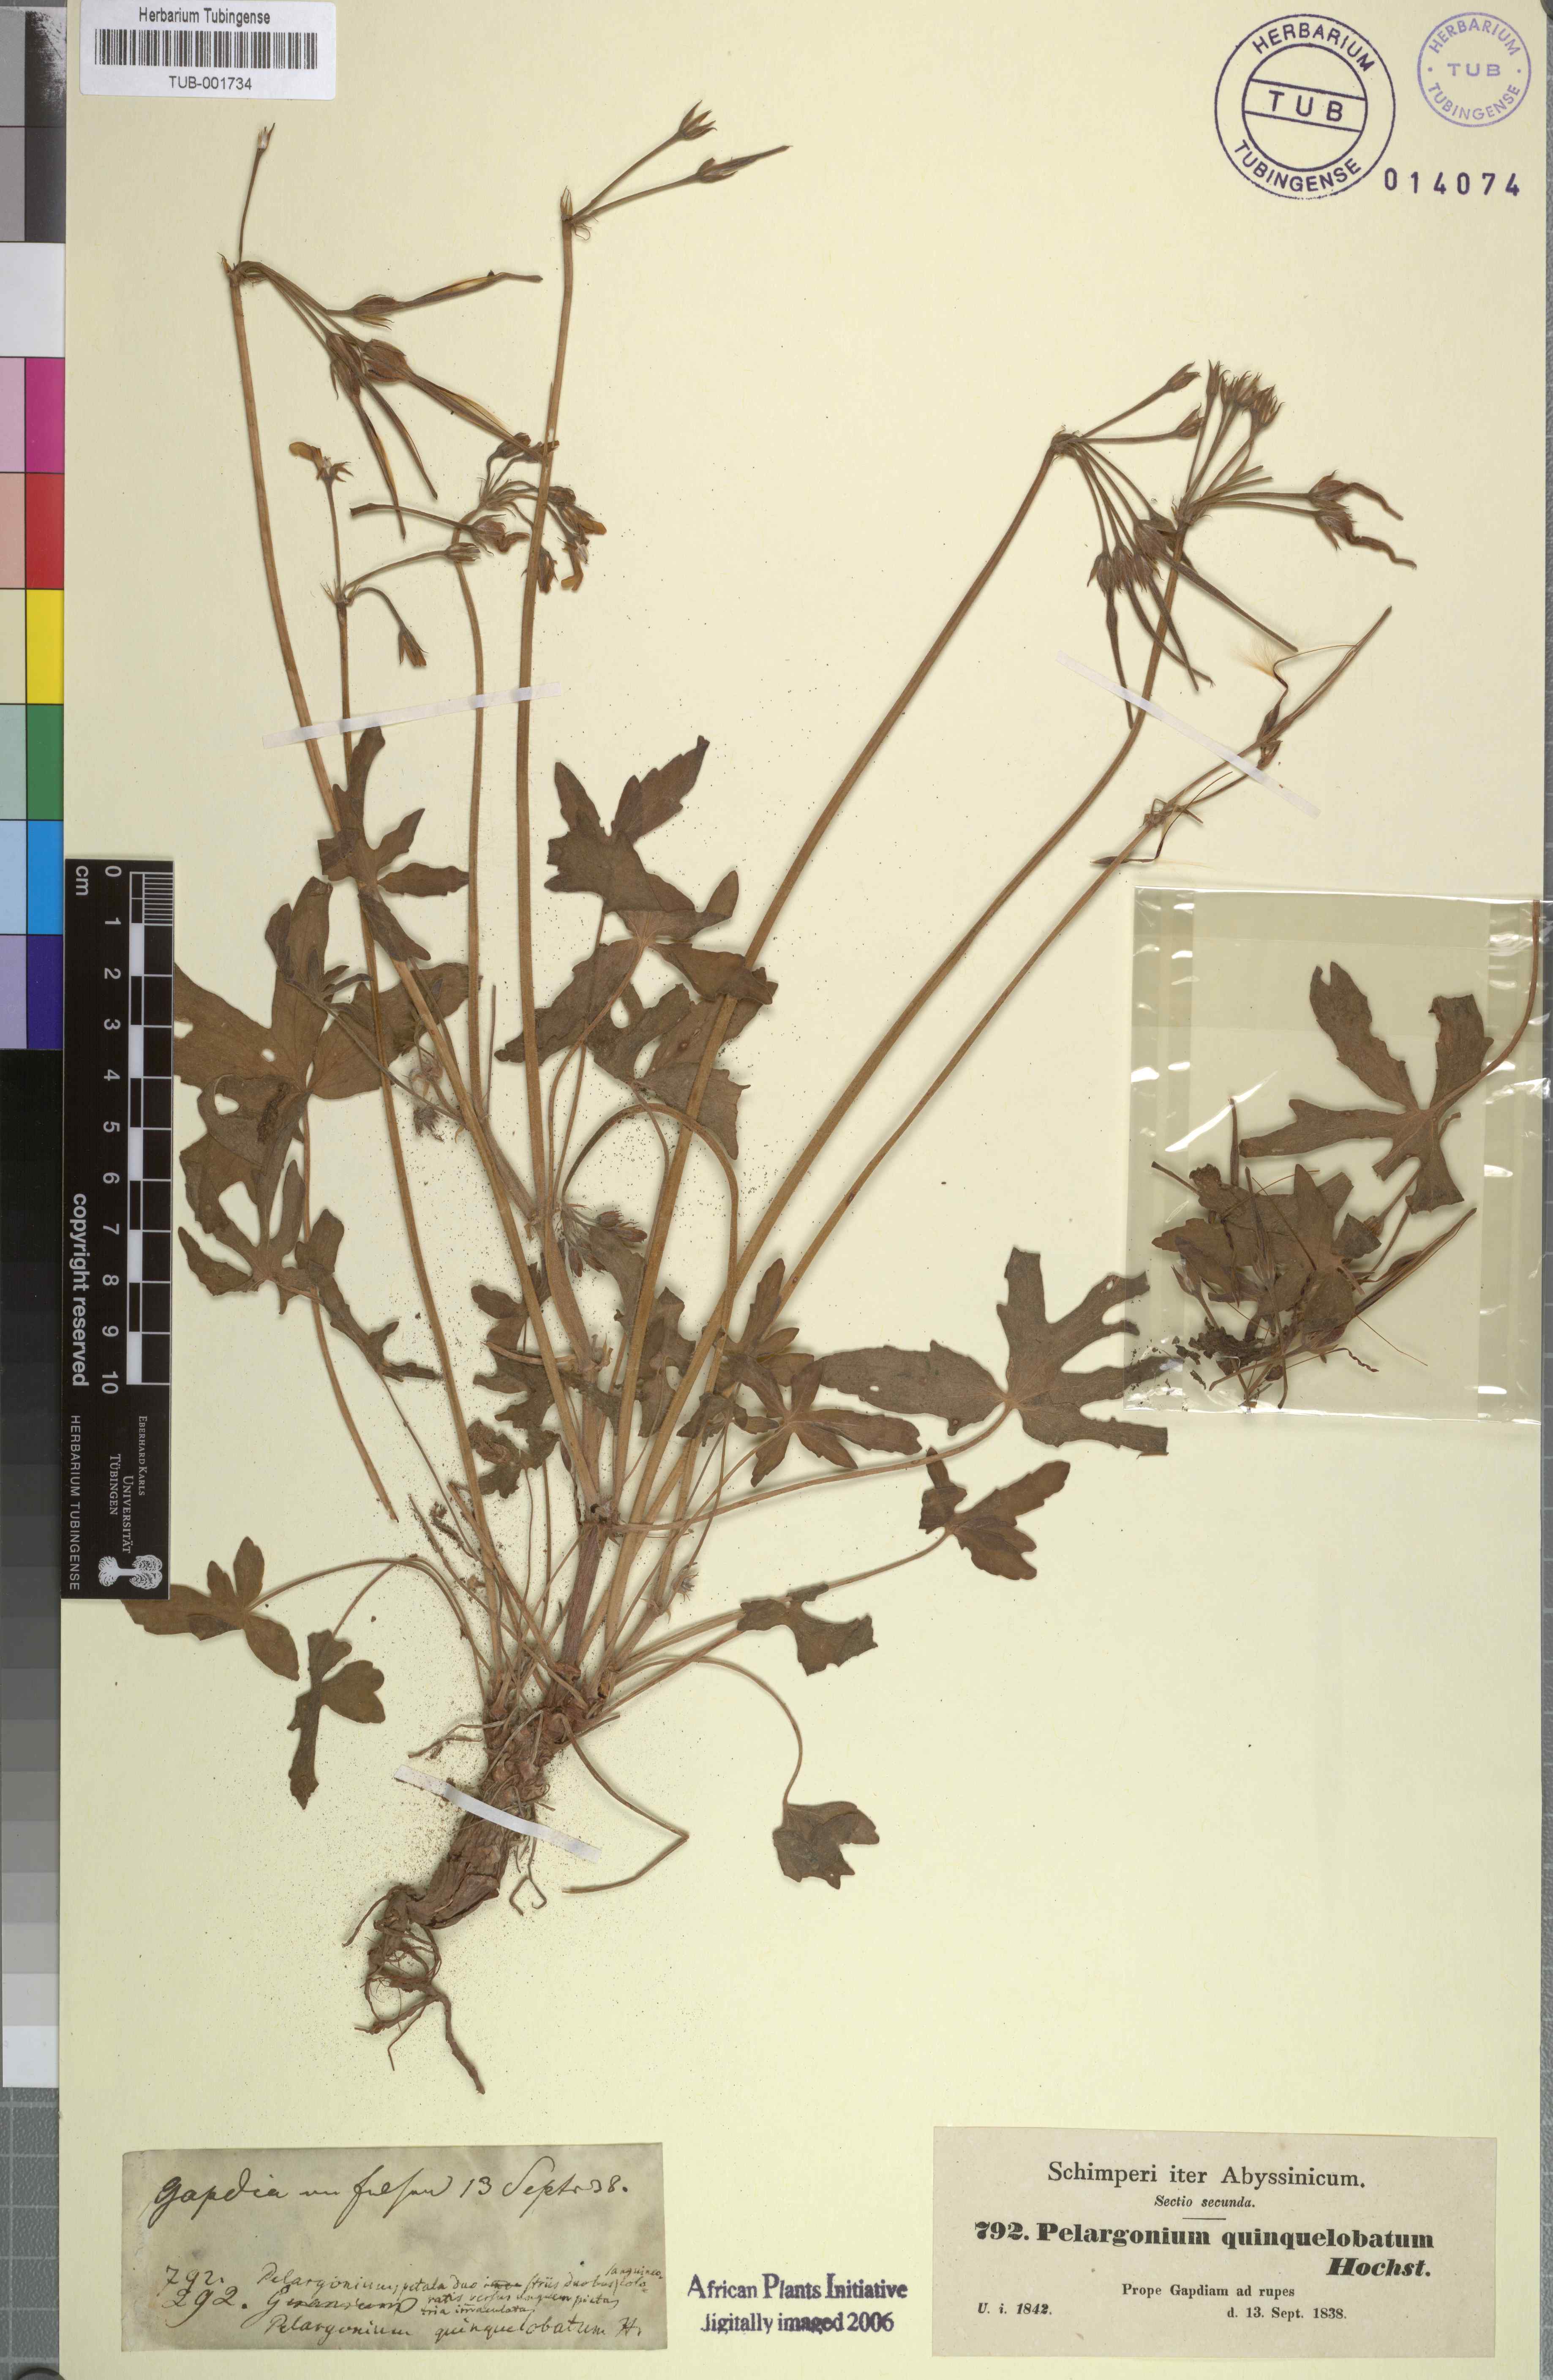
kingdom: Plantae
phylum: Tracheophyta
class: Magnoliopsida
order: Geraniales
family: Geraniaceae
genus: Pelargonium
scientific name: Pelargonium quinquelobatum
